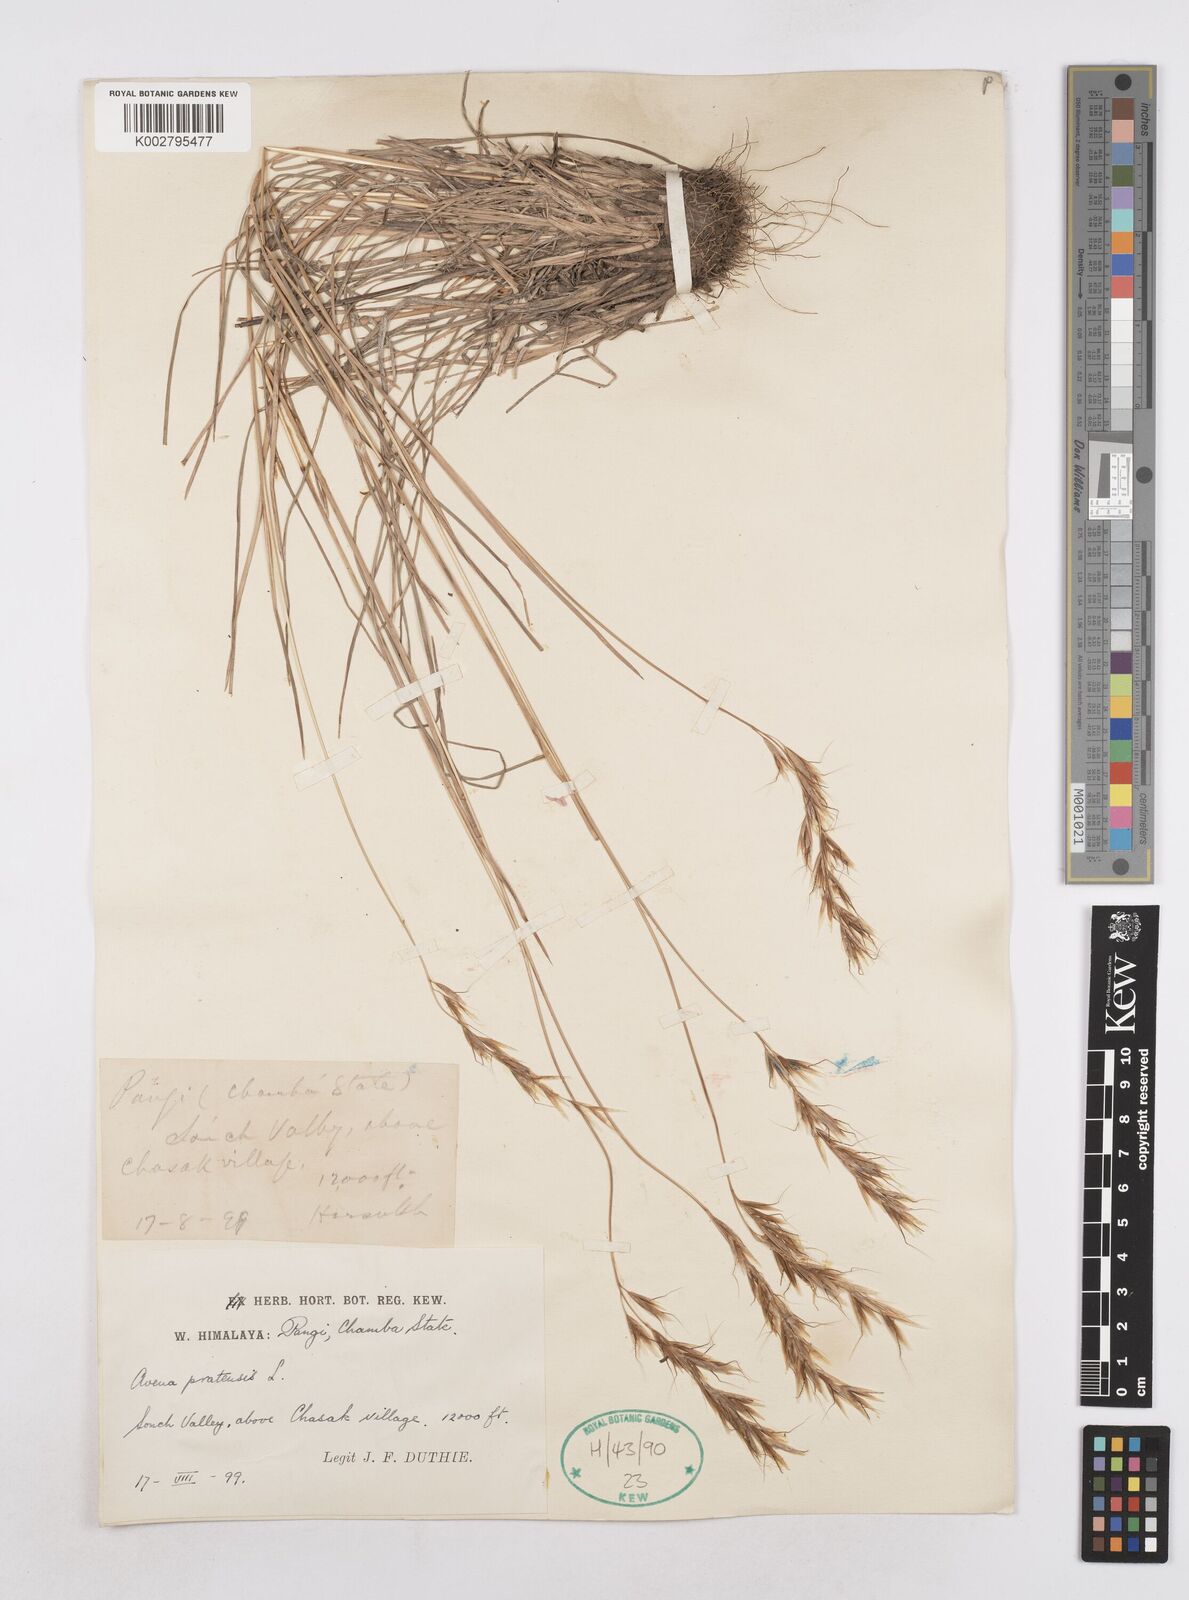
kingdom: Plantae
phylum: Tracheophyta
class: Liliopsida
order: Poales
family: Poaceae
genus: Helictochloa
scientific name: Helictochloa pratensis
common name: Meadow oat grass
